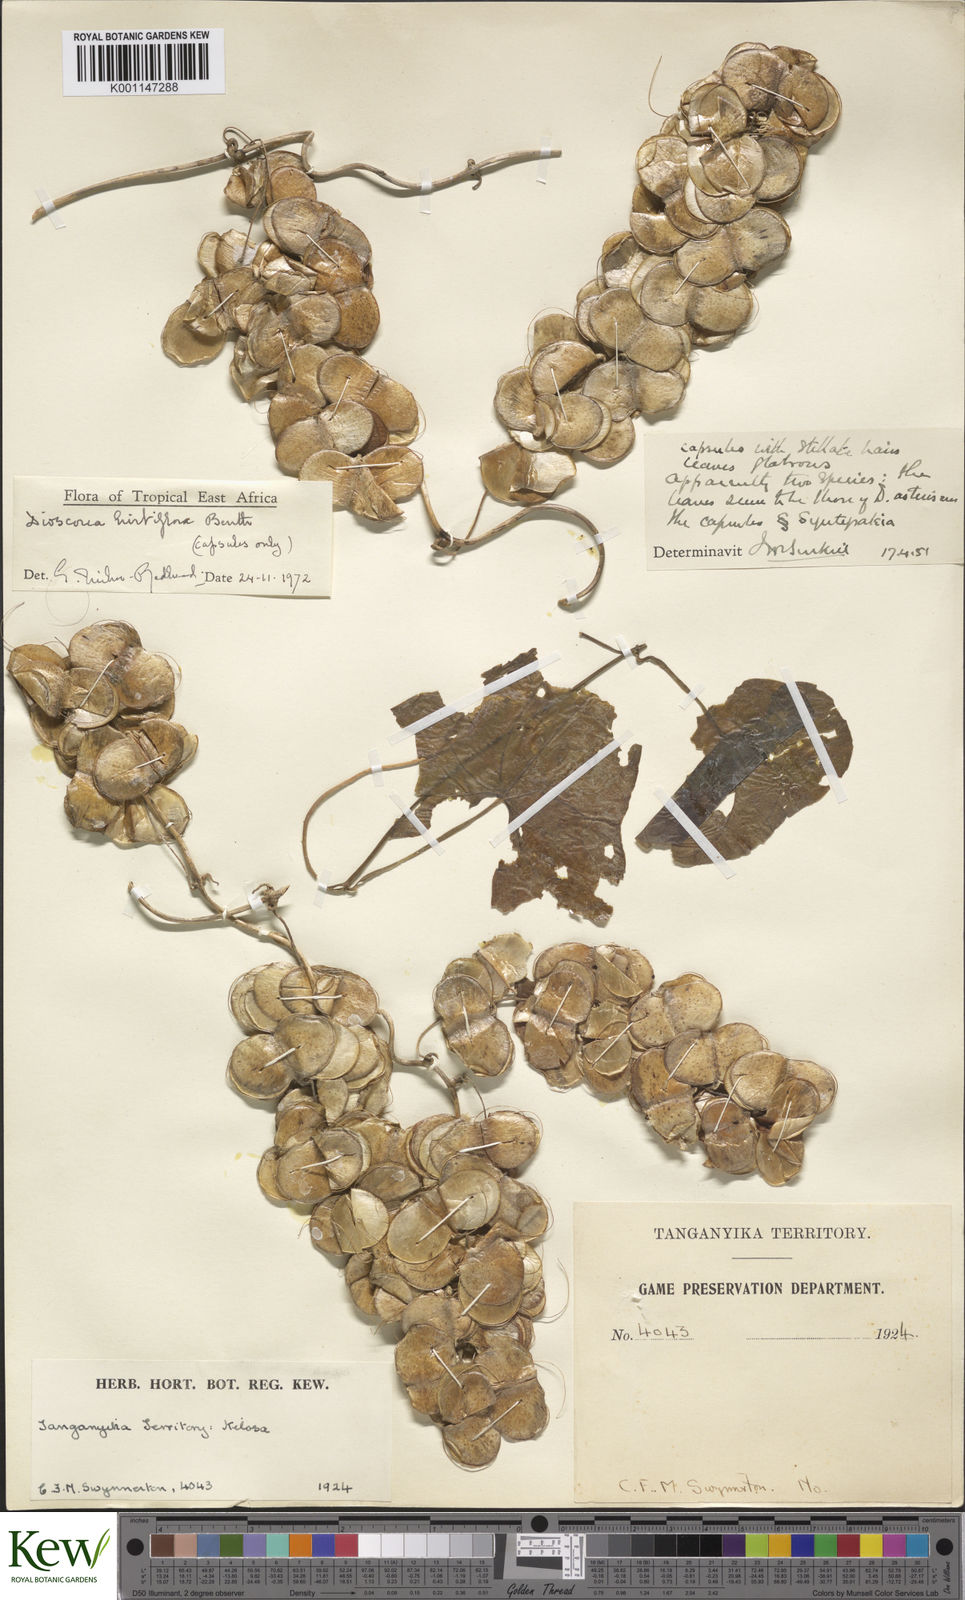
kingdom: Plantae
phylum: Tracheophyta
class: Liliopsida
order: Dioscoreales
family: Dioscoreaceae
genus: Dioscorea
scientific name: Dioscorea hirtiflora
